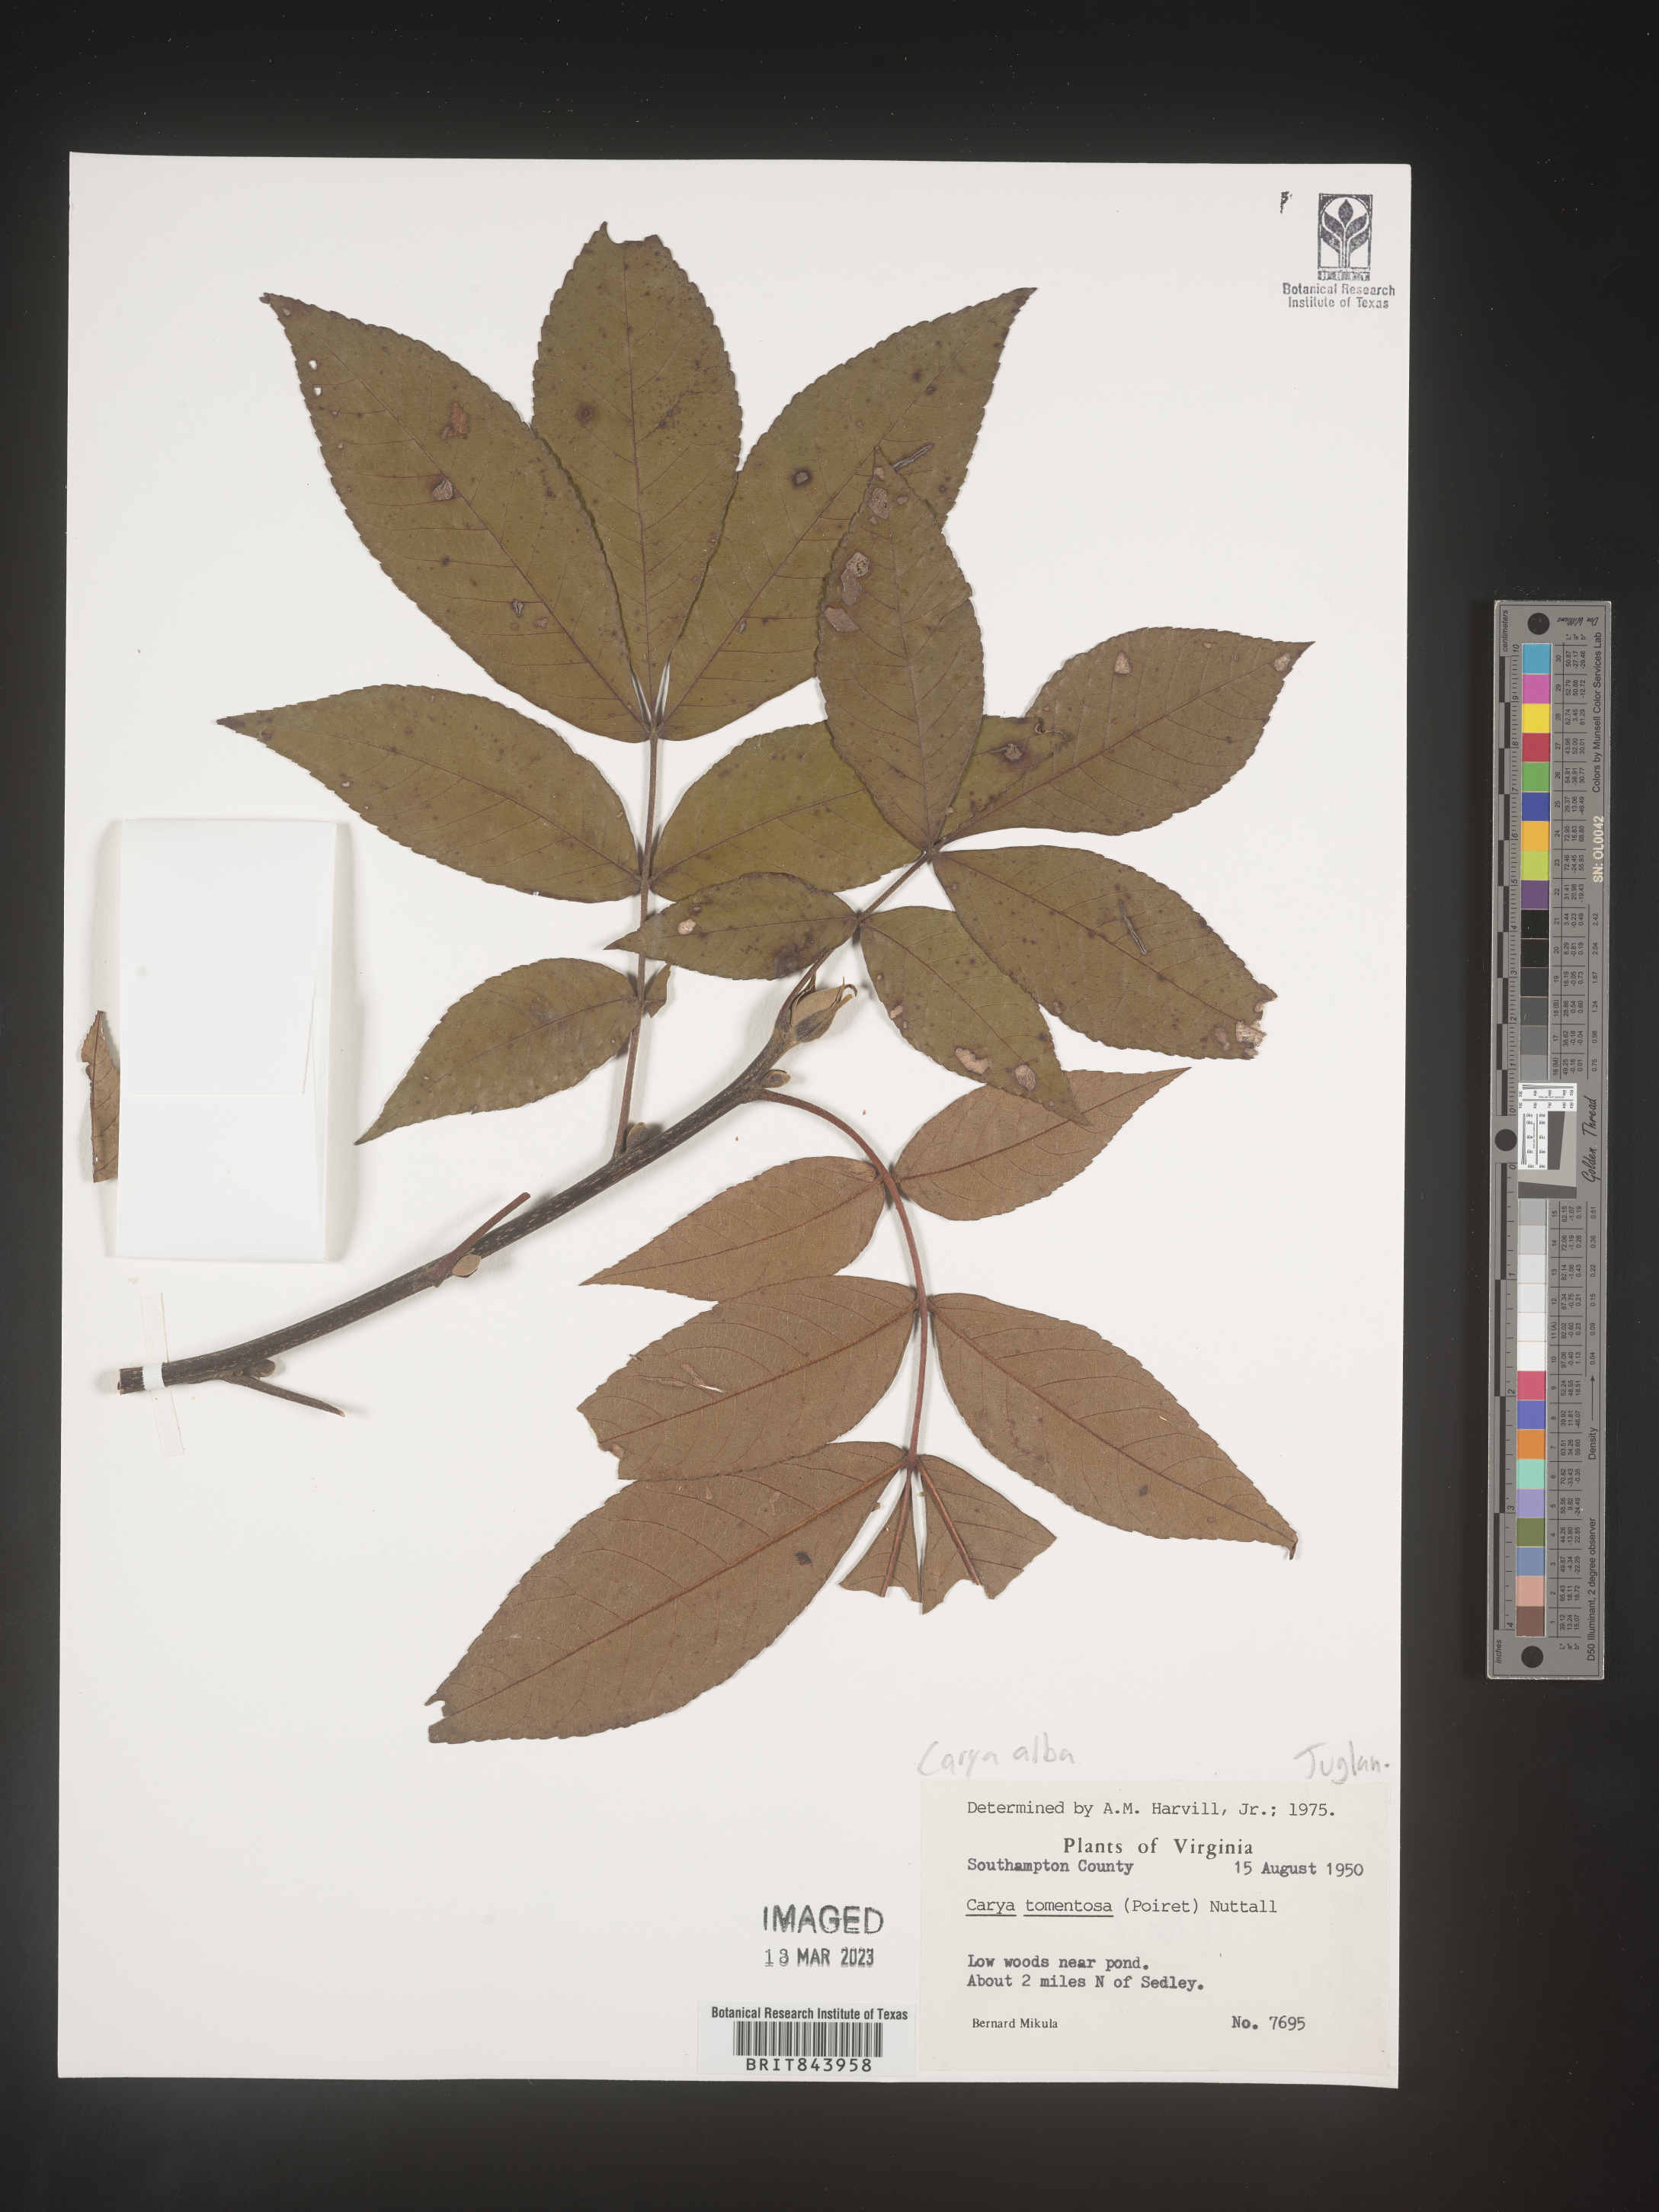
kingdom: Plantae
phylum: Tracheophyta
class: Magnoliopsida
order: Fagales
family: Juglandaceae
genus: Carya
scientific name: Carya alba
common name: Mockernut hickory
